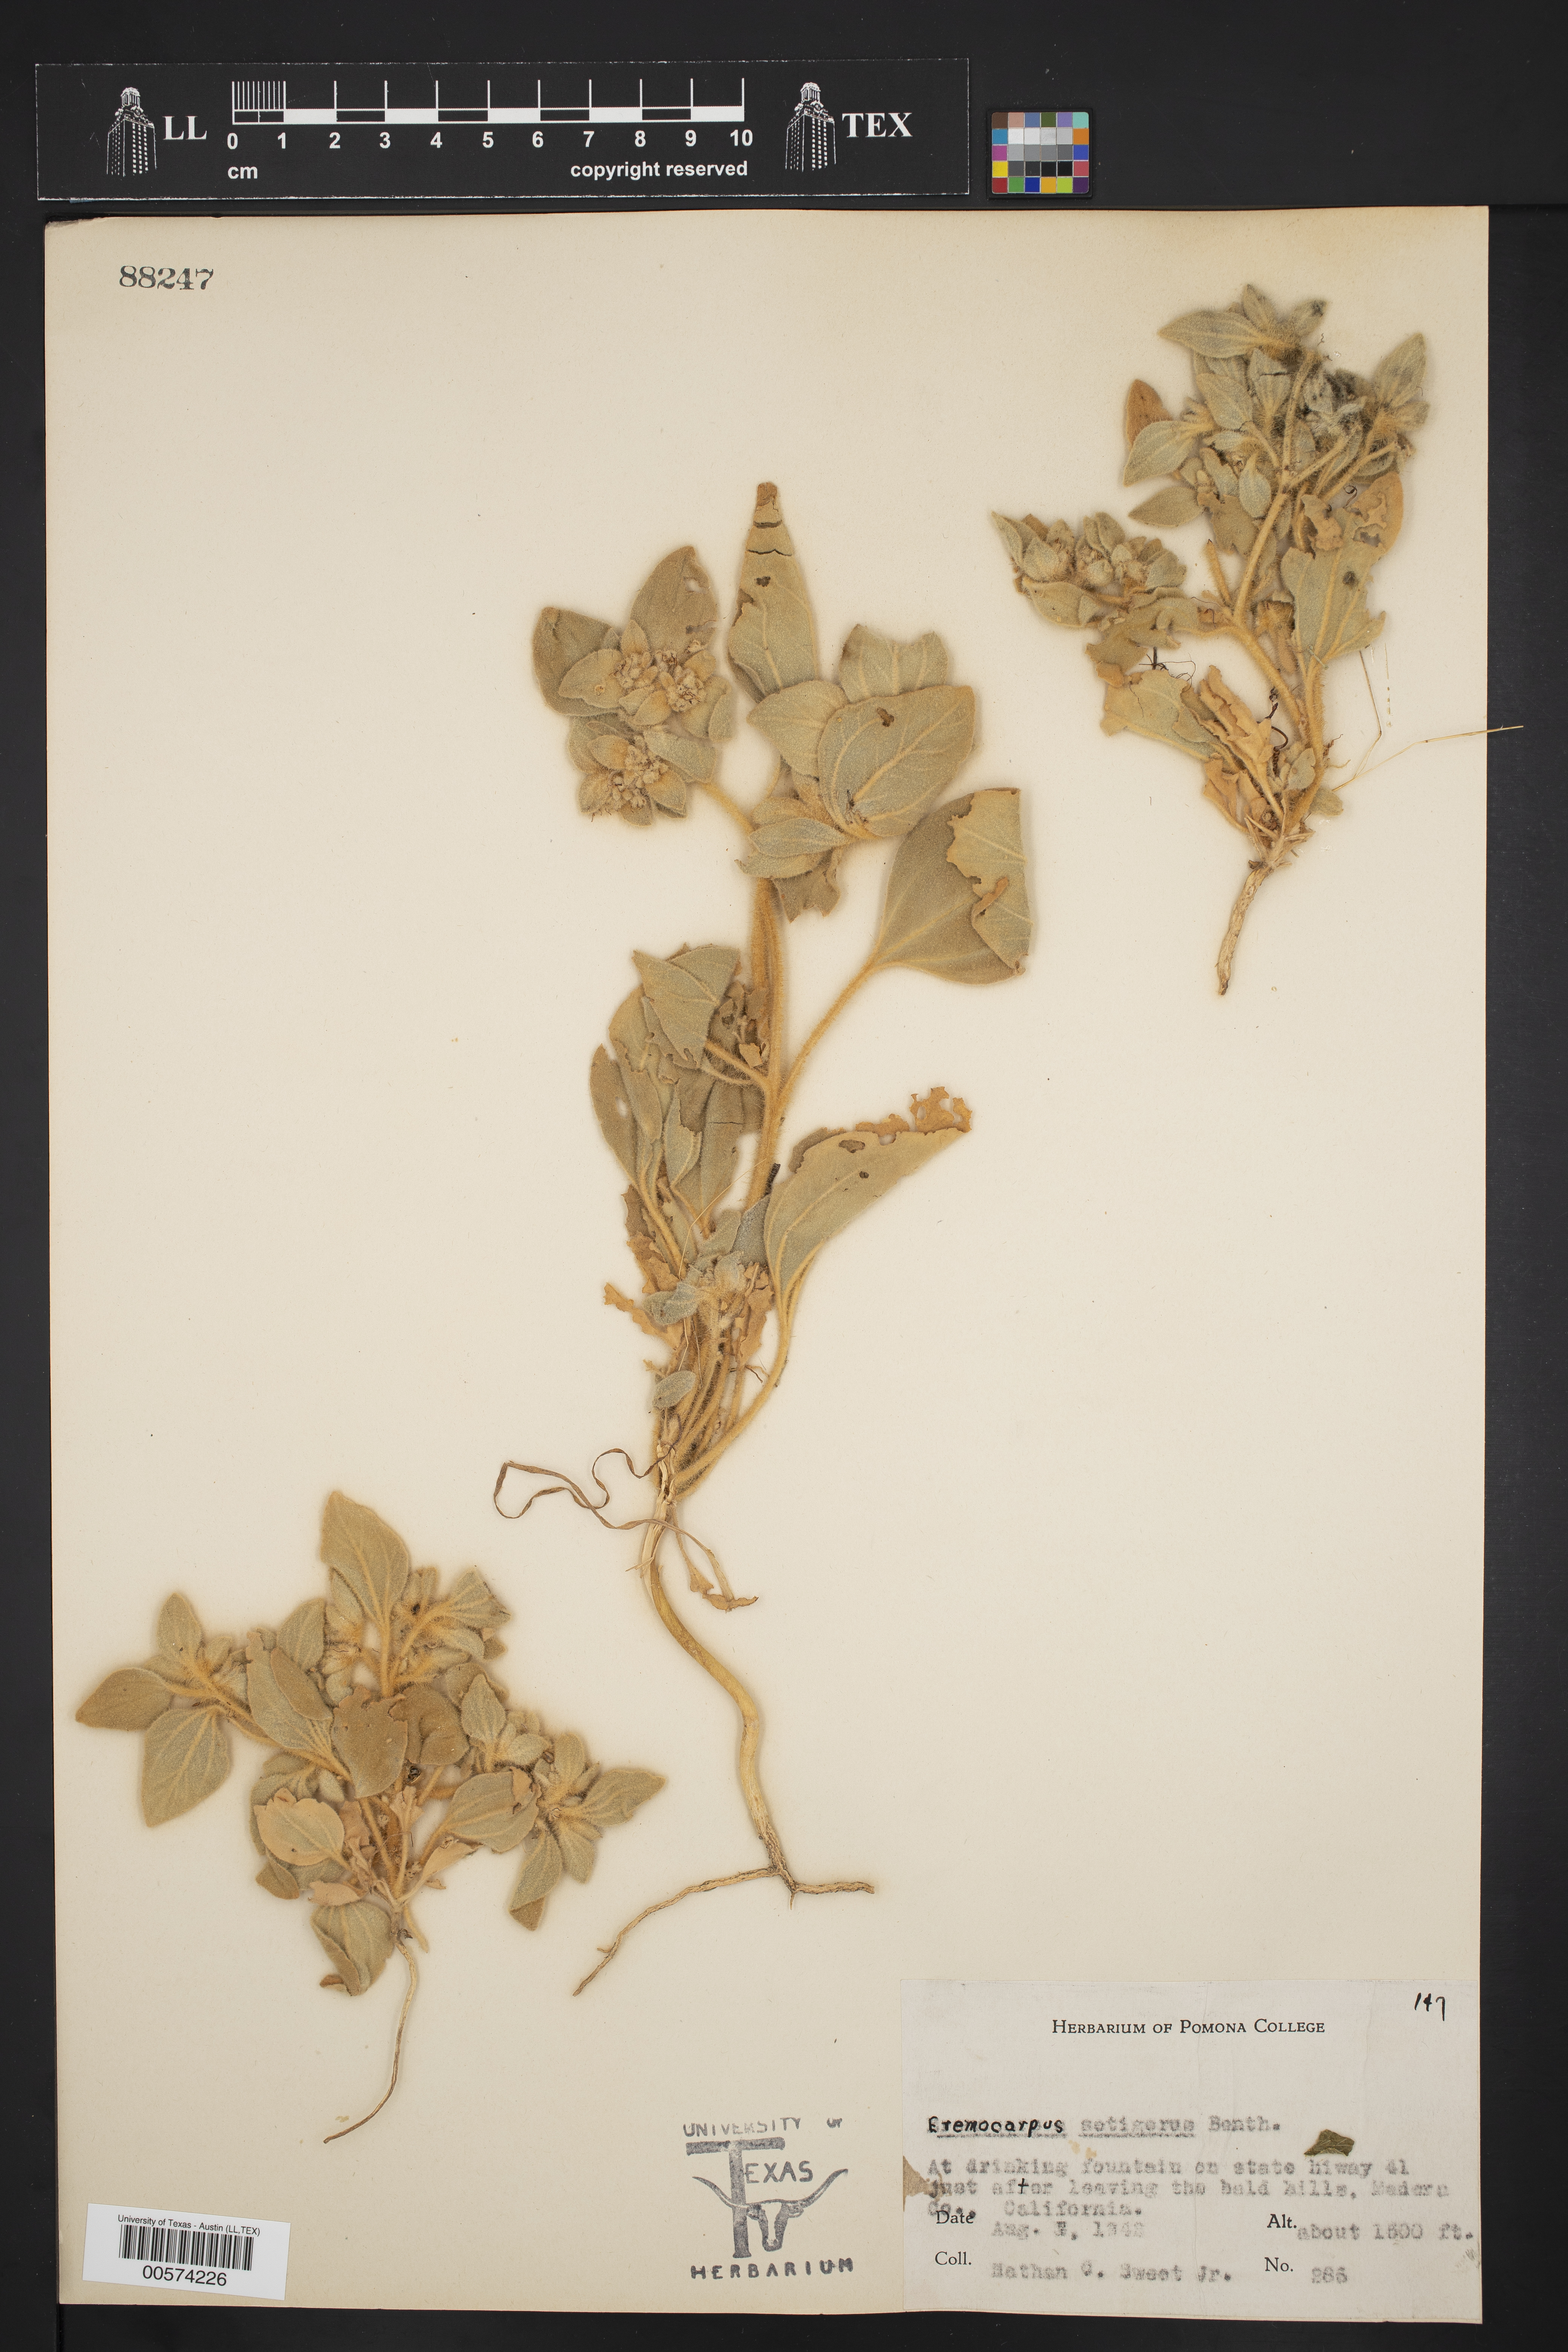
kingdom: Plantae
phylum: Tracheophyta
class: Magnoliopsida
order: Malpighiales
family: Euphorbiaceae
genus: Croton
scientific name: Croton setiger
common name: Dove weed
